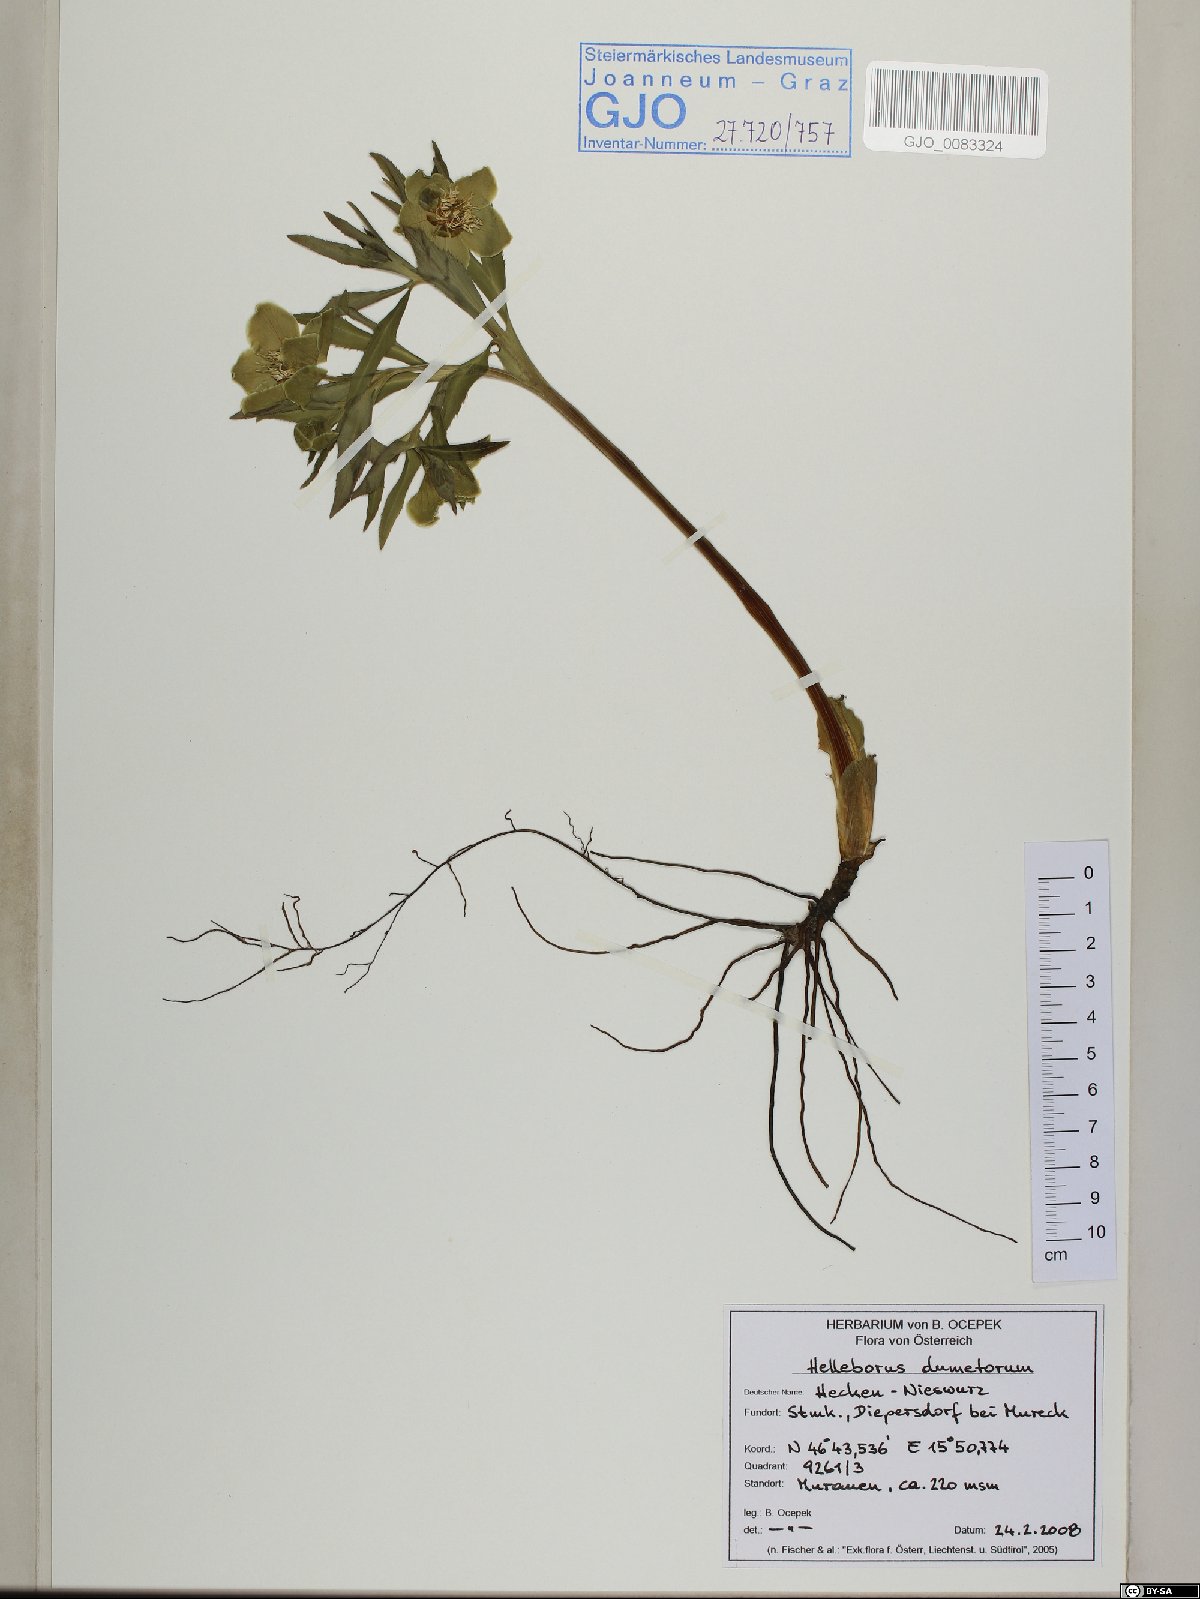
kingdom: Plantae
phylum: Tracheophyta
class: Magnoliopsida
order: Ranunculales
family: Ranunculaceae
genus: Helleborus
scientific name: Helleborus dumetorum
